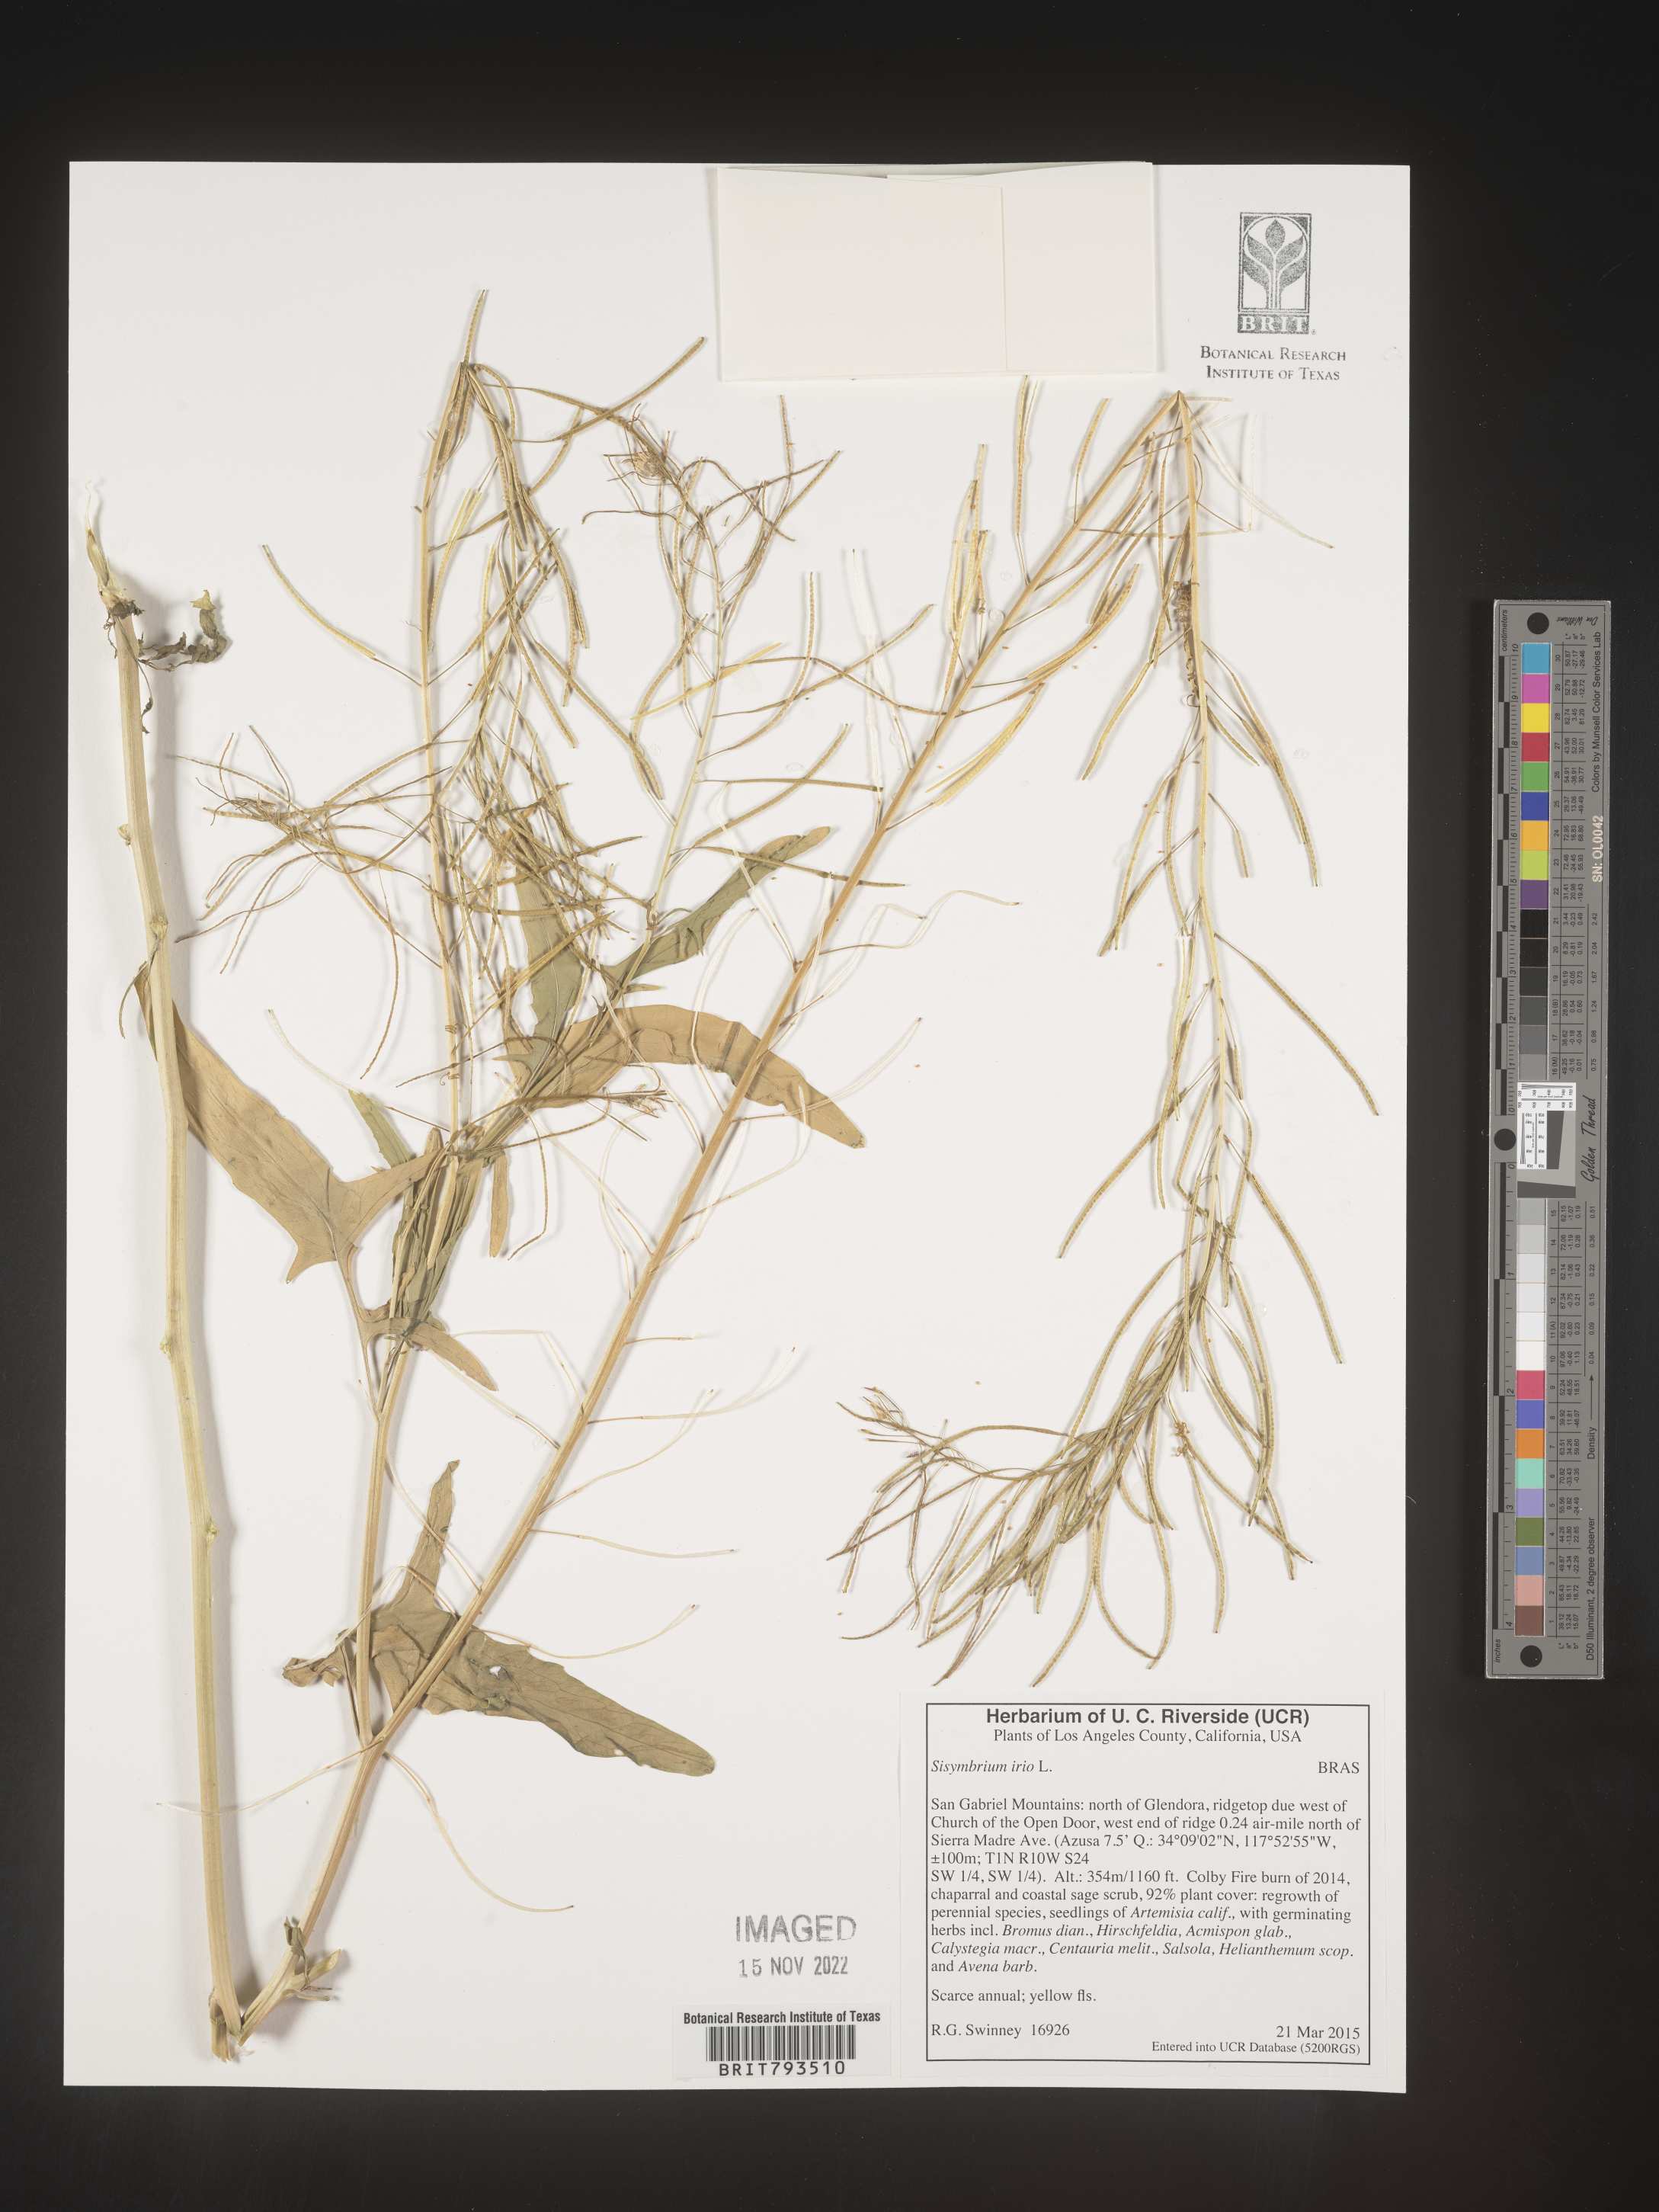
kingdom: Plantae
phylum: Tracheophyta
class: Magnoliopsida
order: Brassicales
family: Brassicaceae
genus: Sisymbrium
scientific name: Sisymbrium irio
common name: London rocket
